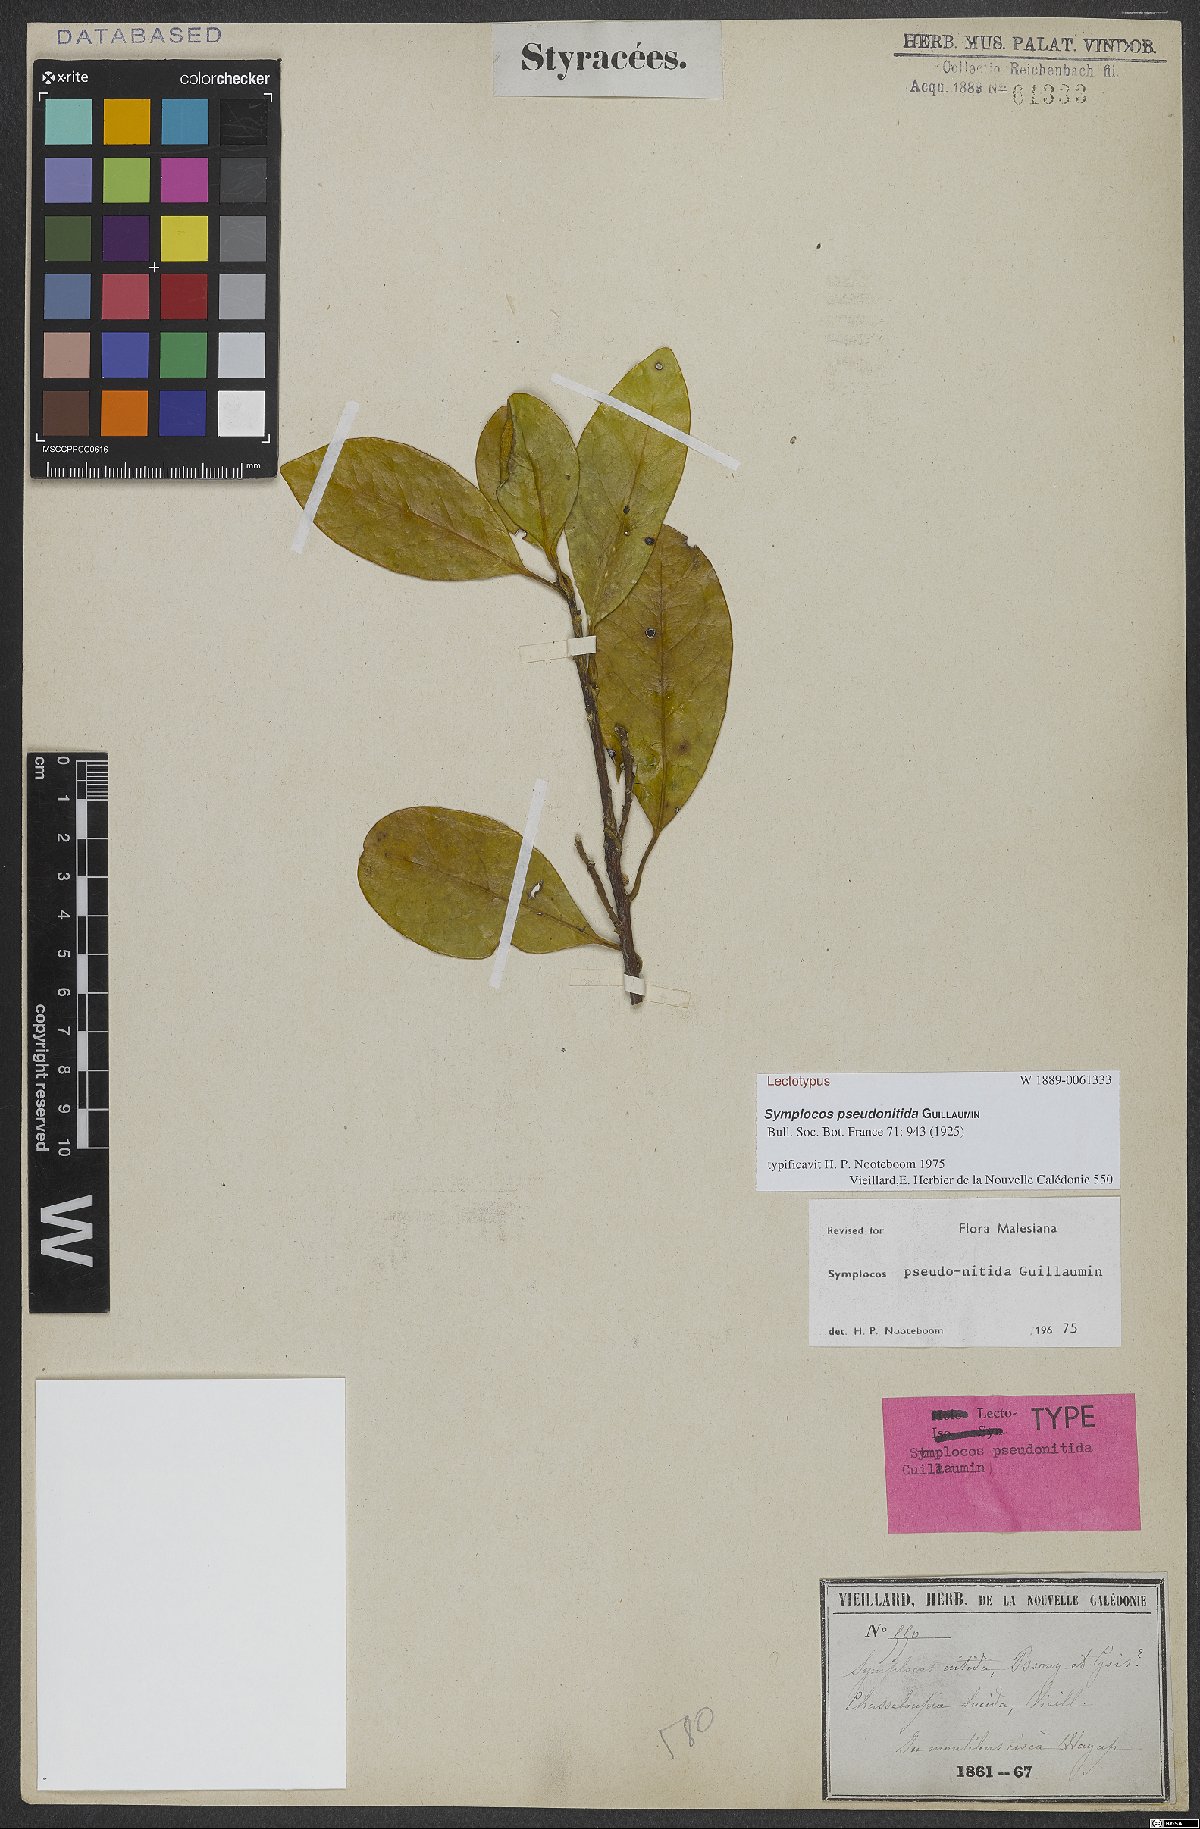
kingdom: Plantae
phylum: Tracheophyta
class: Magnoliopsida
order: Ericales
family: Symplocaceae
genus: Symplocos
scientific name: Symplocos flavescens
